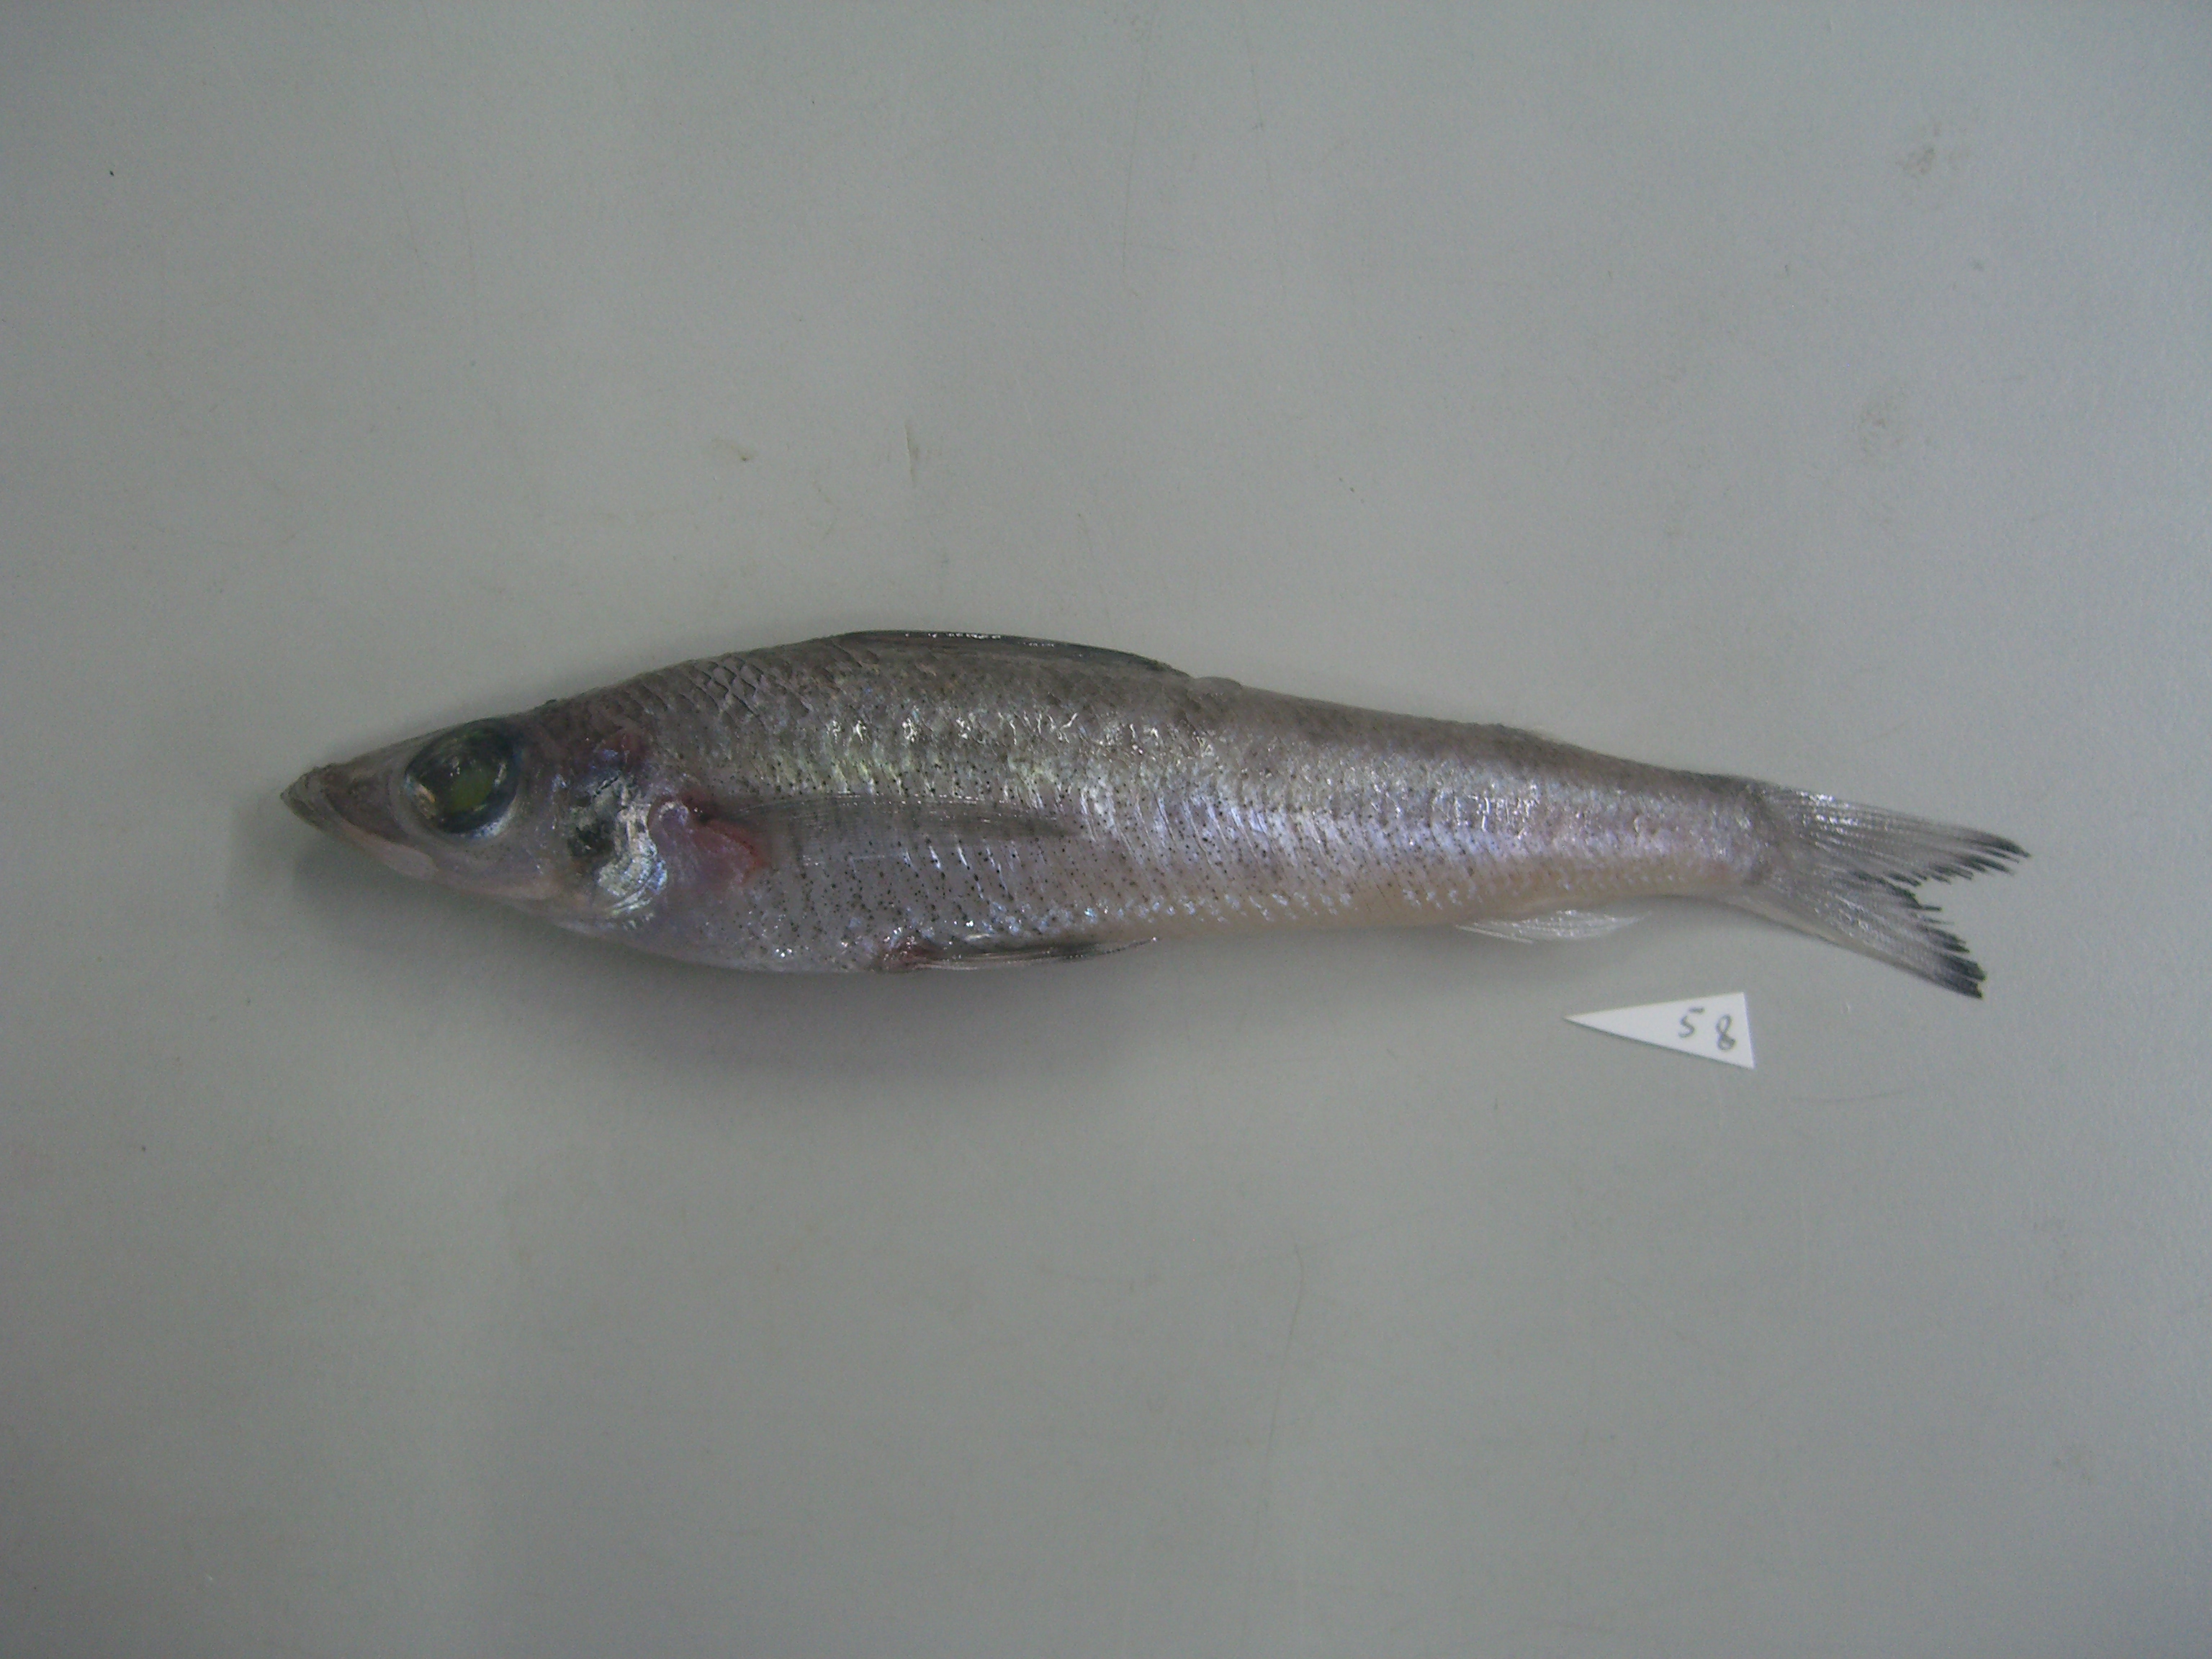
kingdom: Animalia
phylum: Chordata
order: Aulopiformes
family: Chlorophthalmidae
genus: Chlorophthalmus
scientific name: Chlorophthalmus nigromarginatus
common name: Blackedge greeneye
